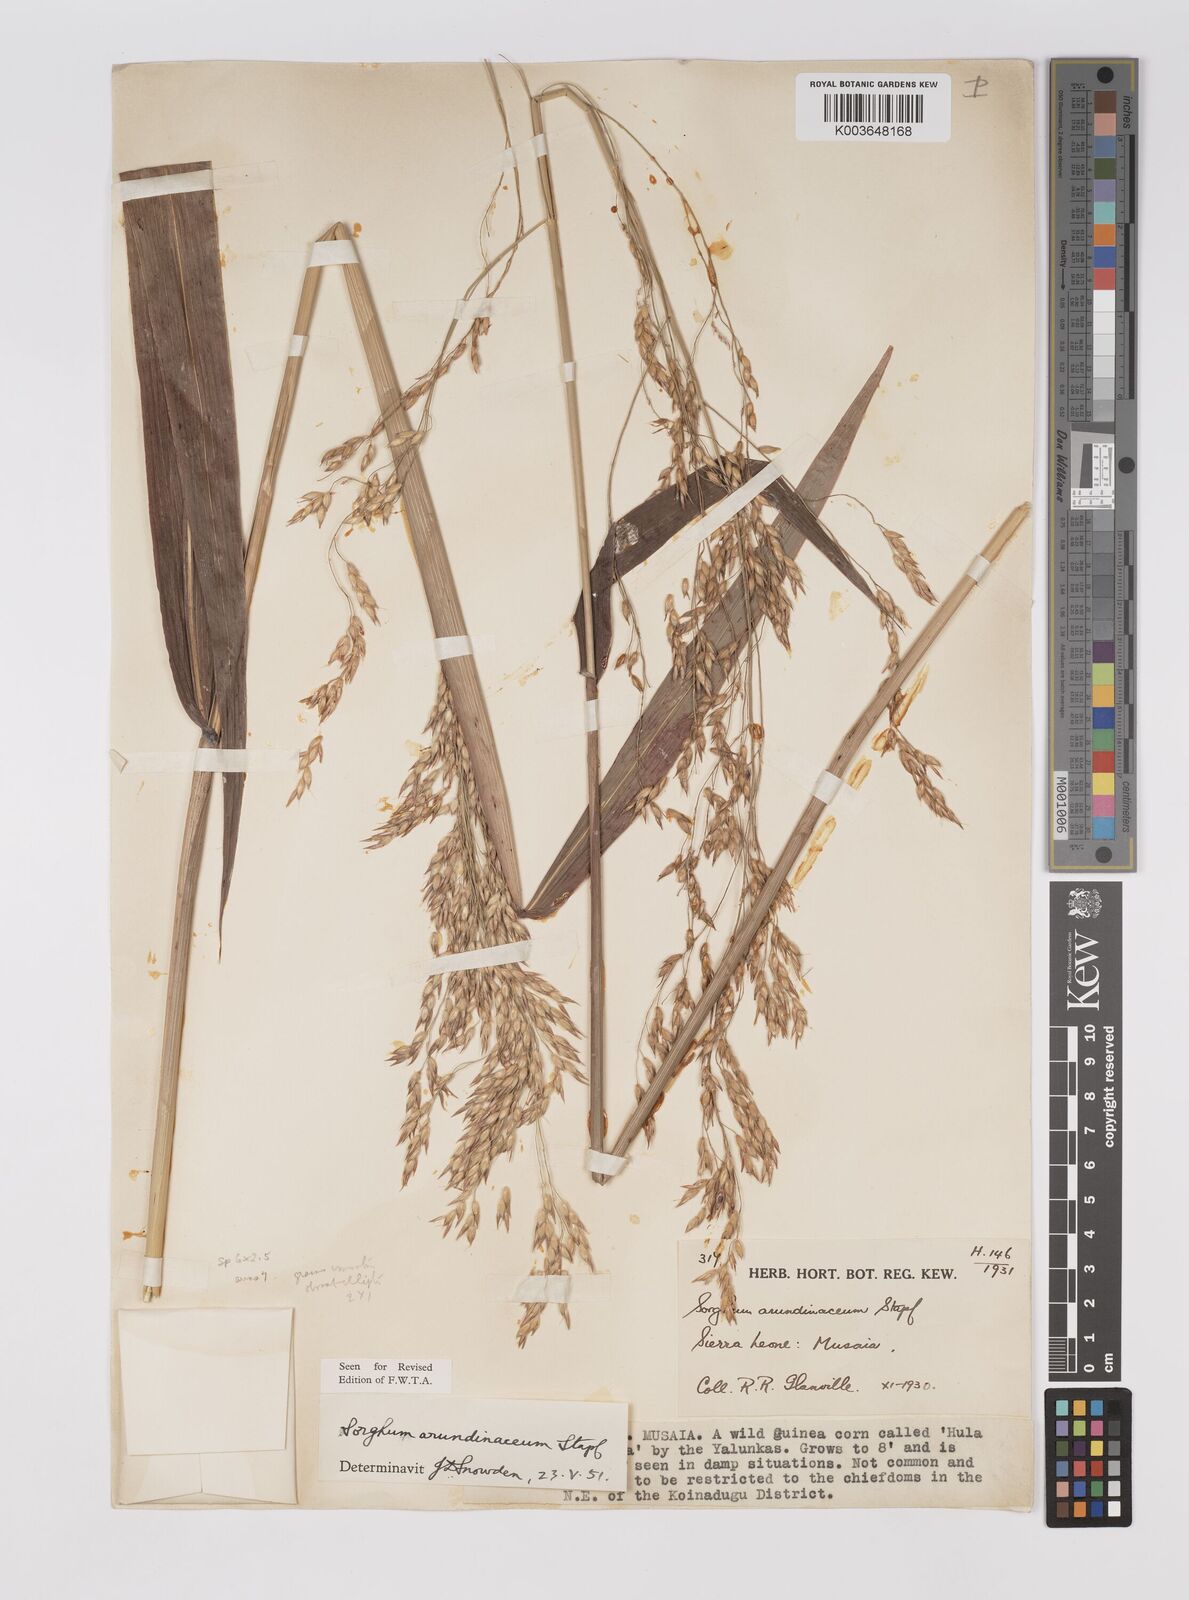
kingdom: Plantae
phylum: Tracheophyta
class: Liliopsida
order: Poales
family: Poaceae
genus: Sorghum
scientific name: Sorghum arundinaceum
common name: Sorghum
